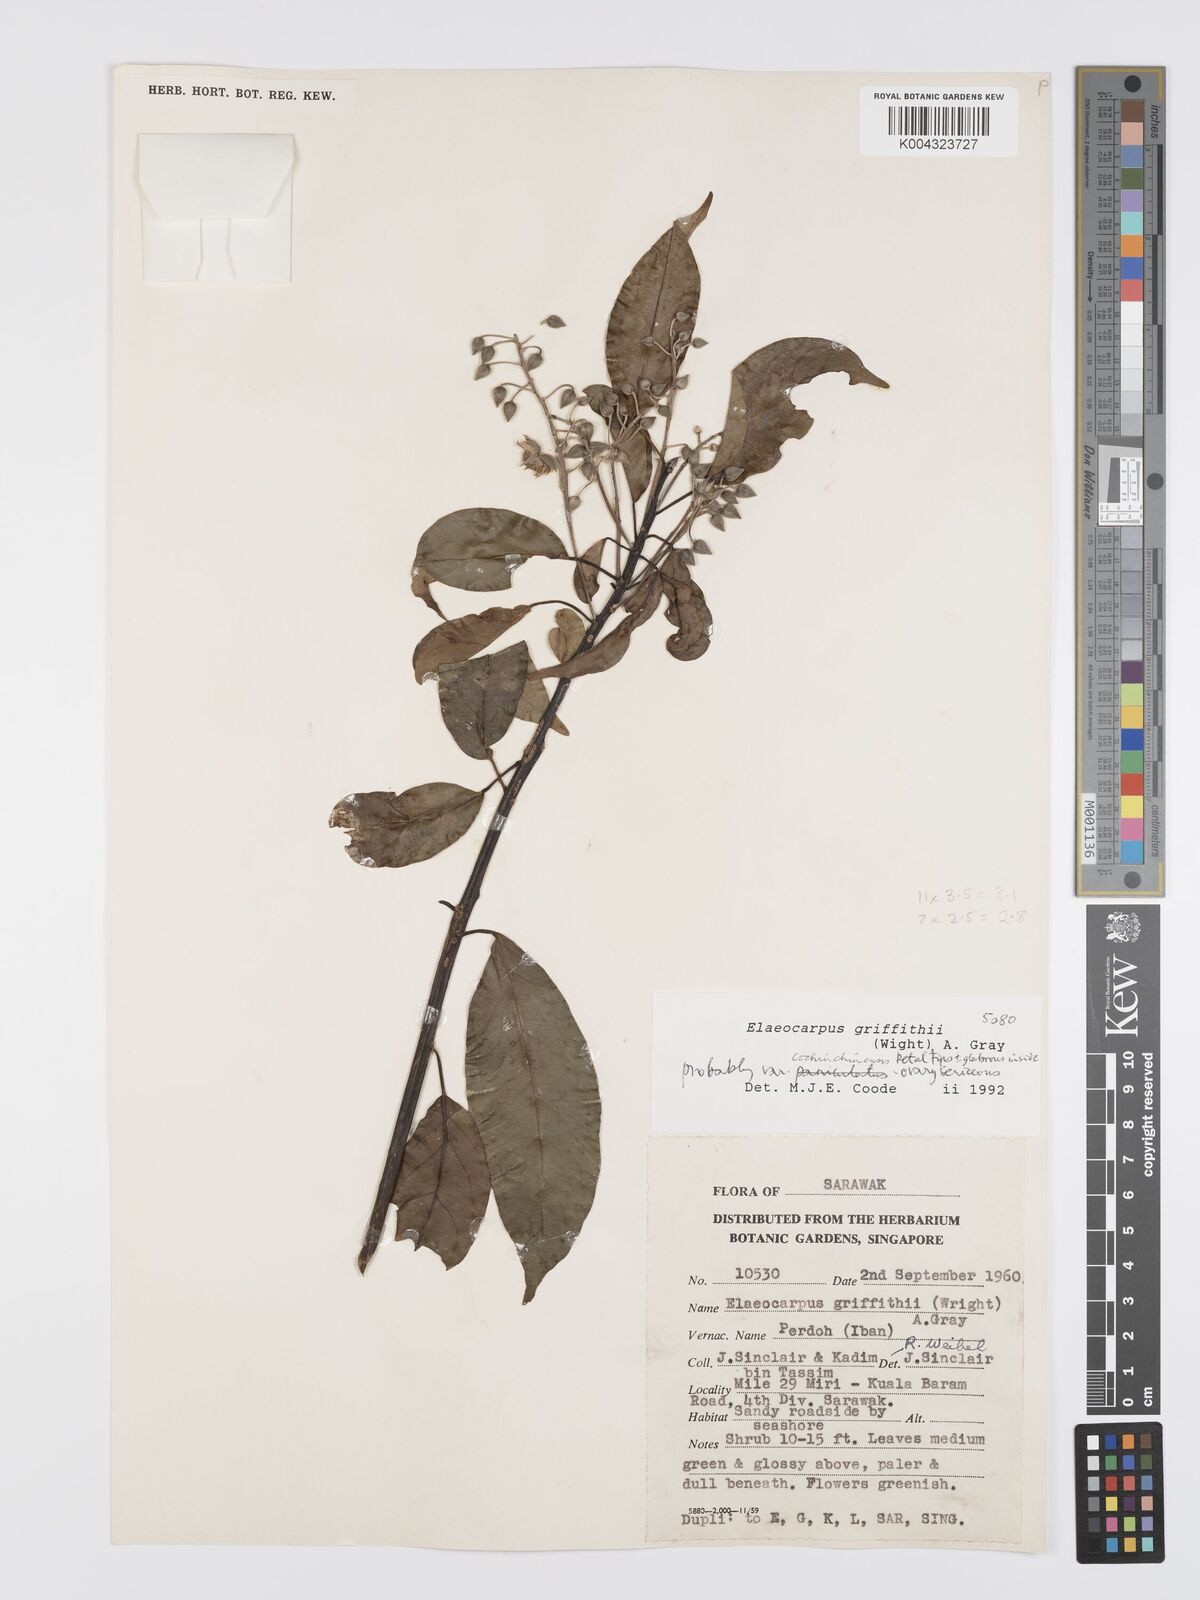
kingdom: Plantae
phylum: Tracheophyta
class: Magnoliopsida
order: Oxalidales
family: Elaeocarpaceae
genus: Elaeocarpus
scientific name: Elaeocarpus griffithii
